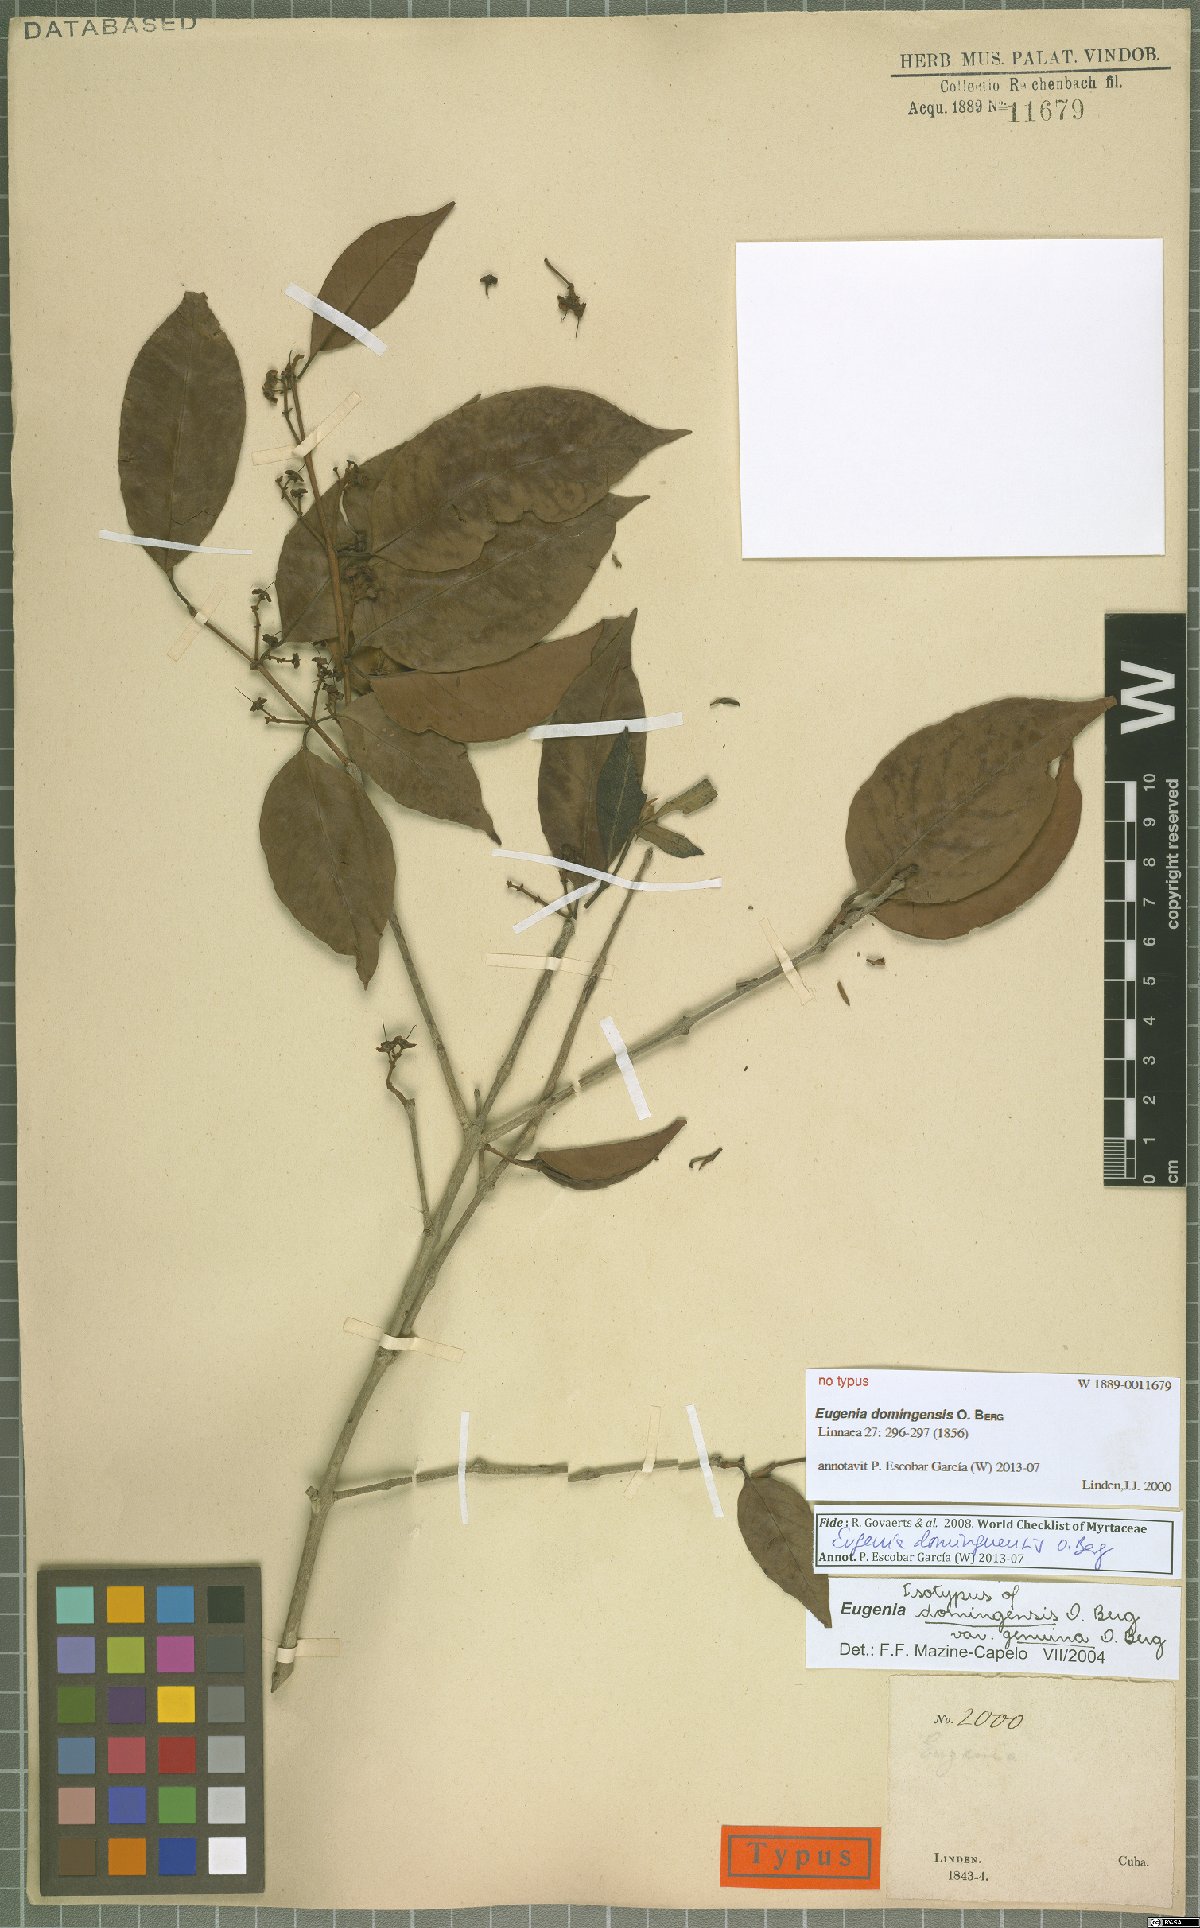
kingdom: Plantae
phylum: Tracheophyta
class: Magnoliopsida
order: Myrtales
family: Myrtaceae
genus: Eugenia
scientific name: Eugenia domingensis
